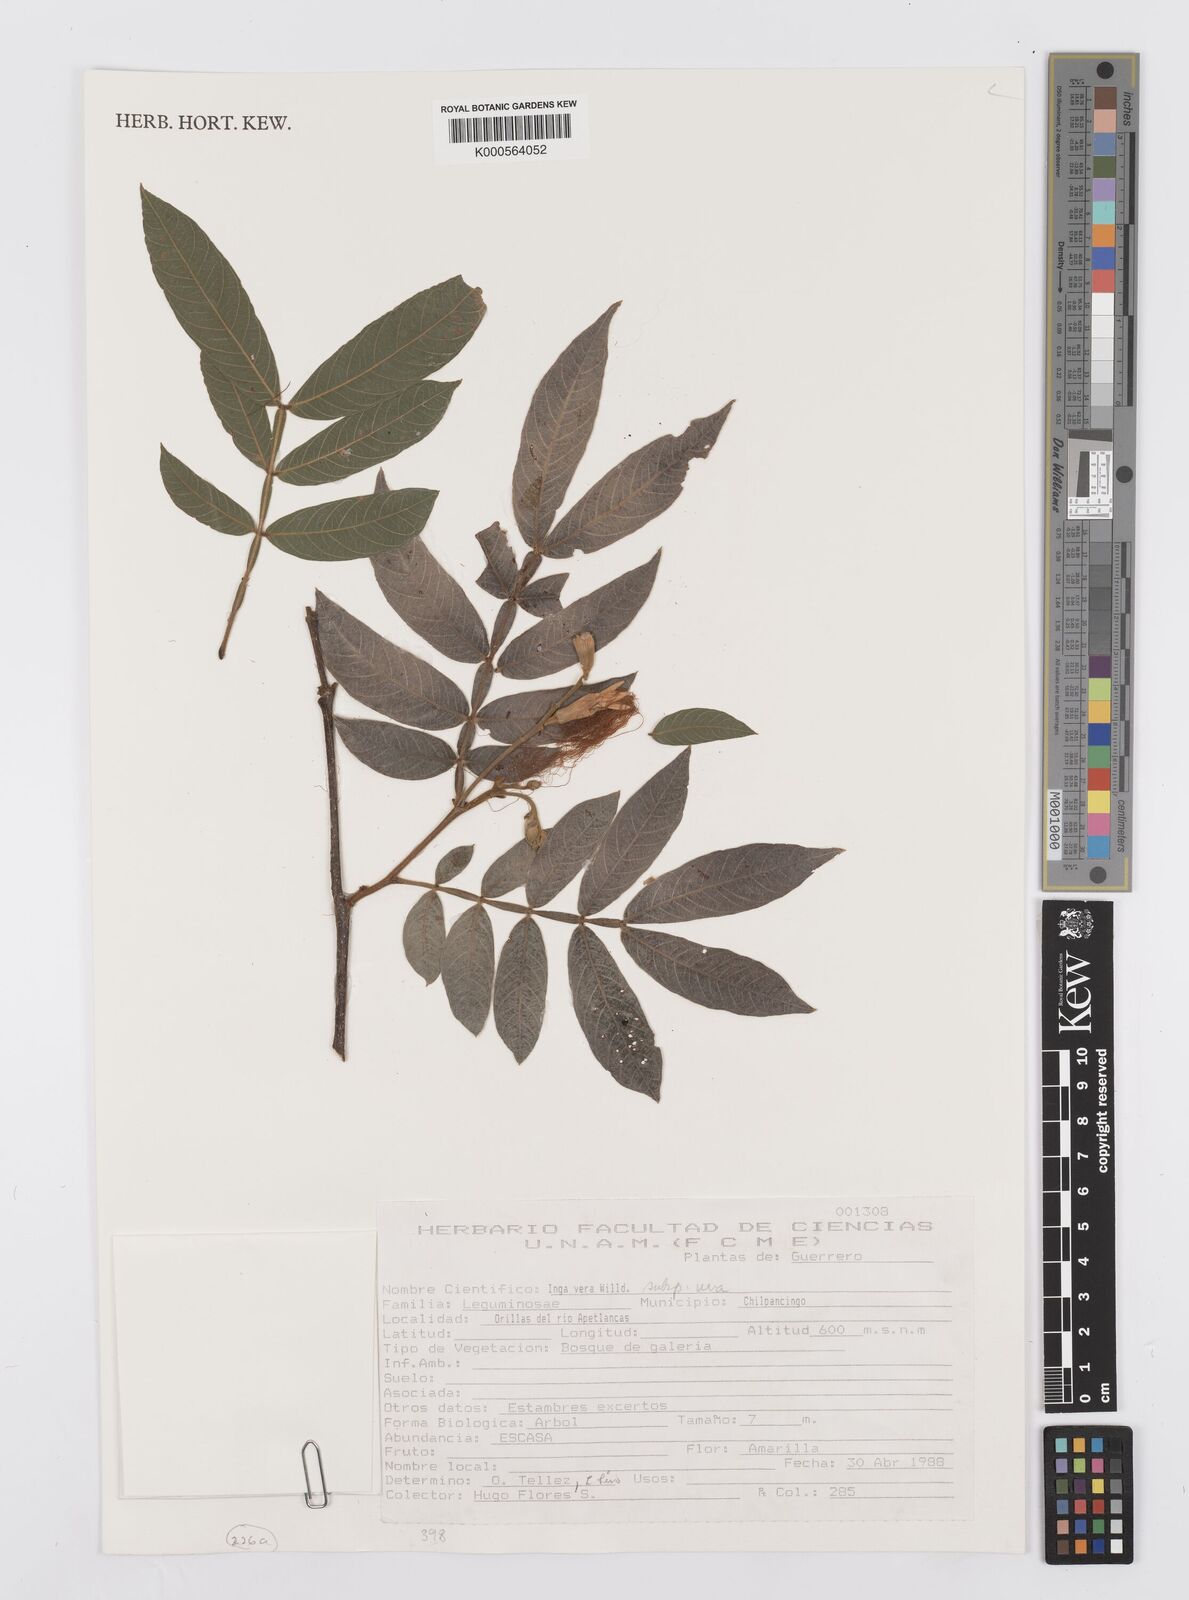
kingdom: Plantae
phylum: Tracheophyta
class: Magnoliopsida
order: Fabales
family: Fabaceae
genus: Inga
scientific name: Inga vera
